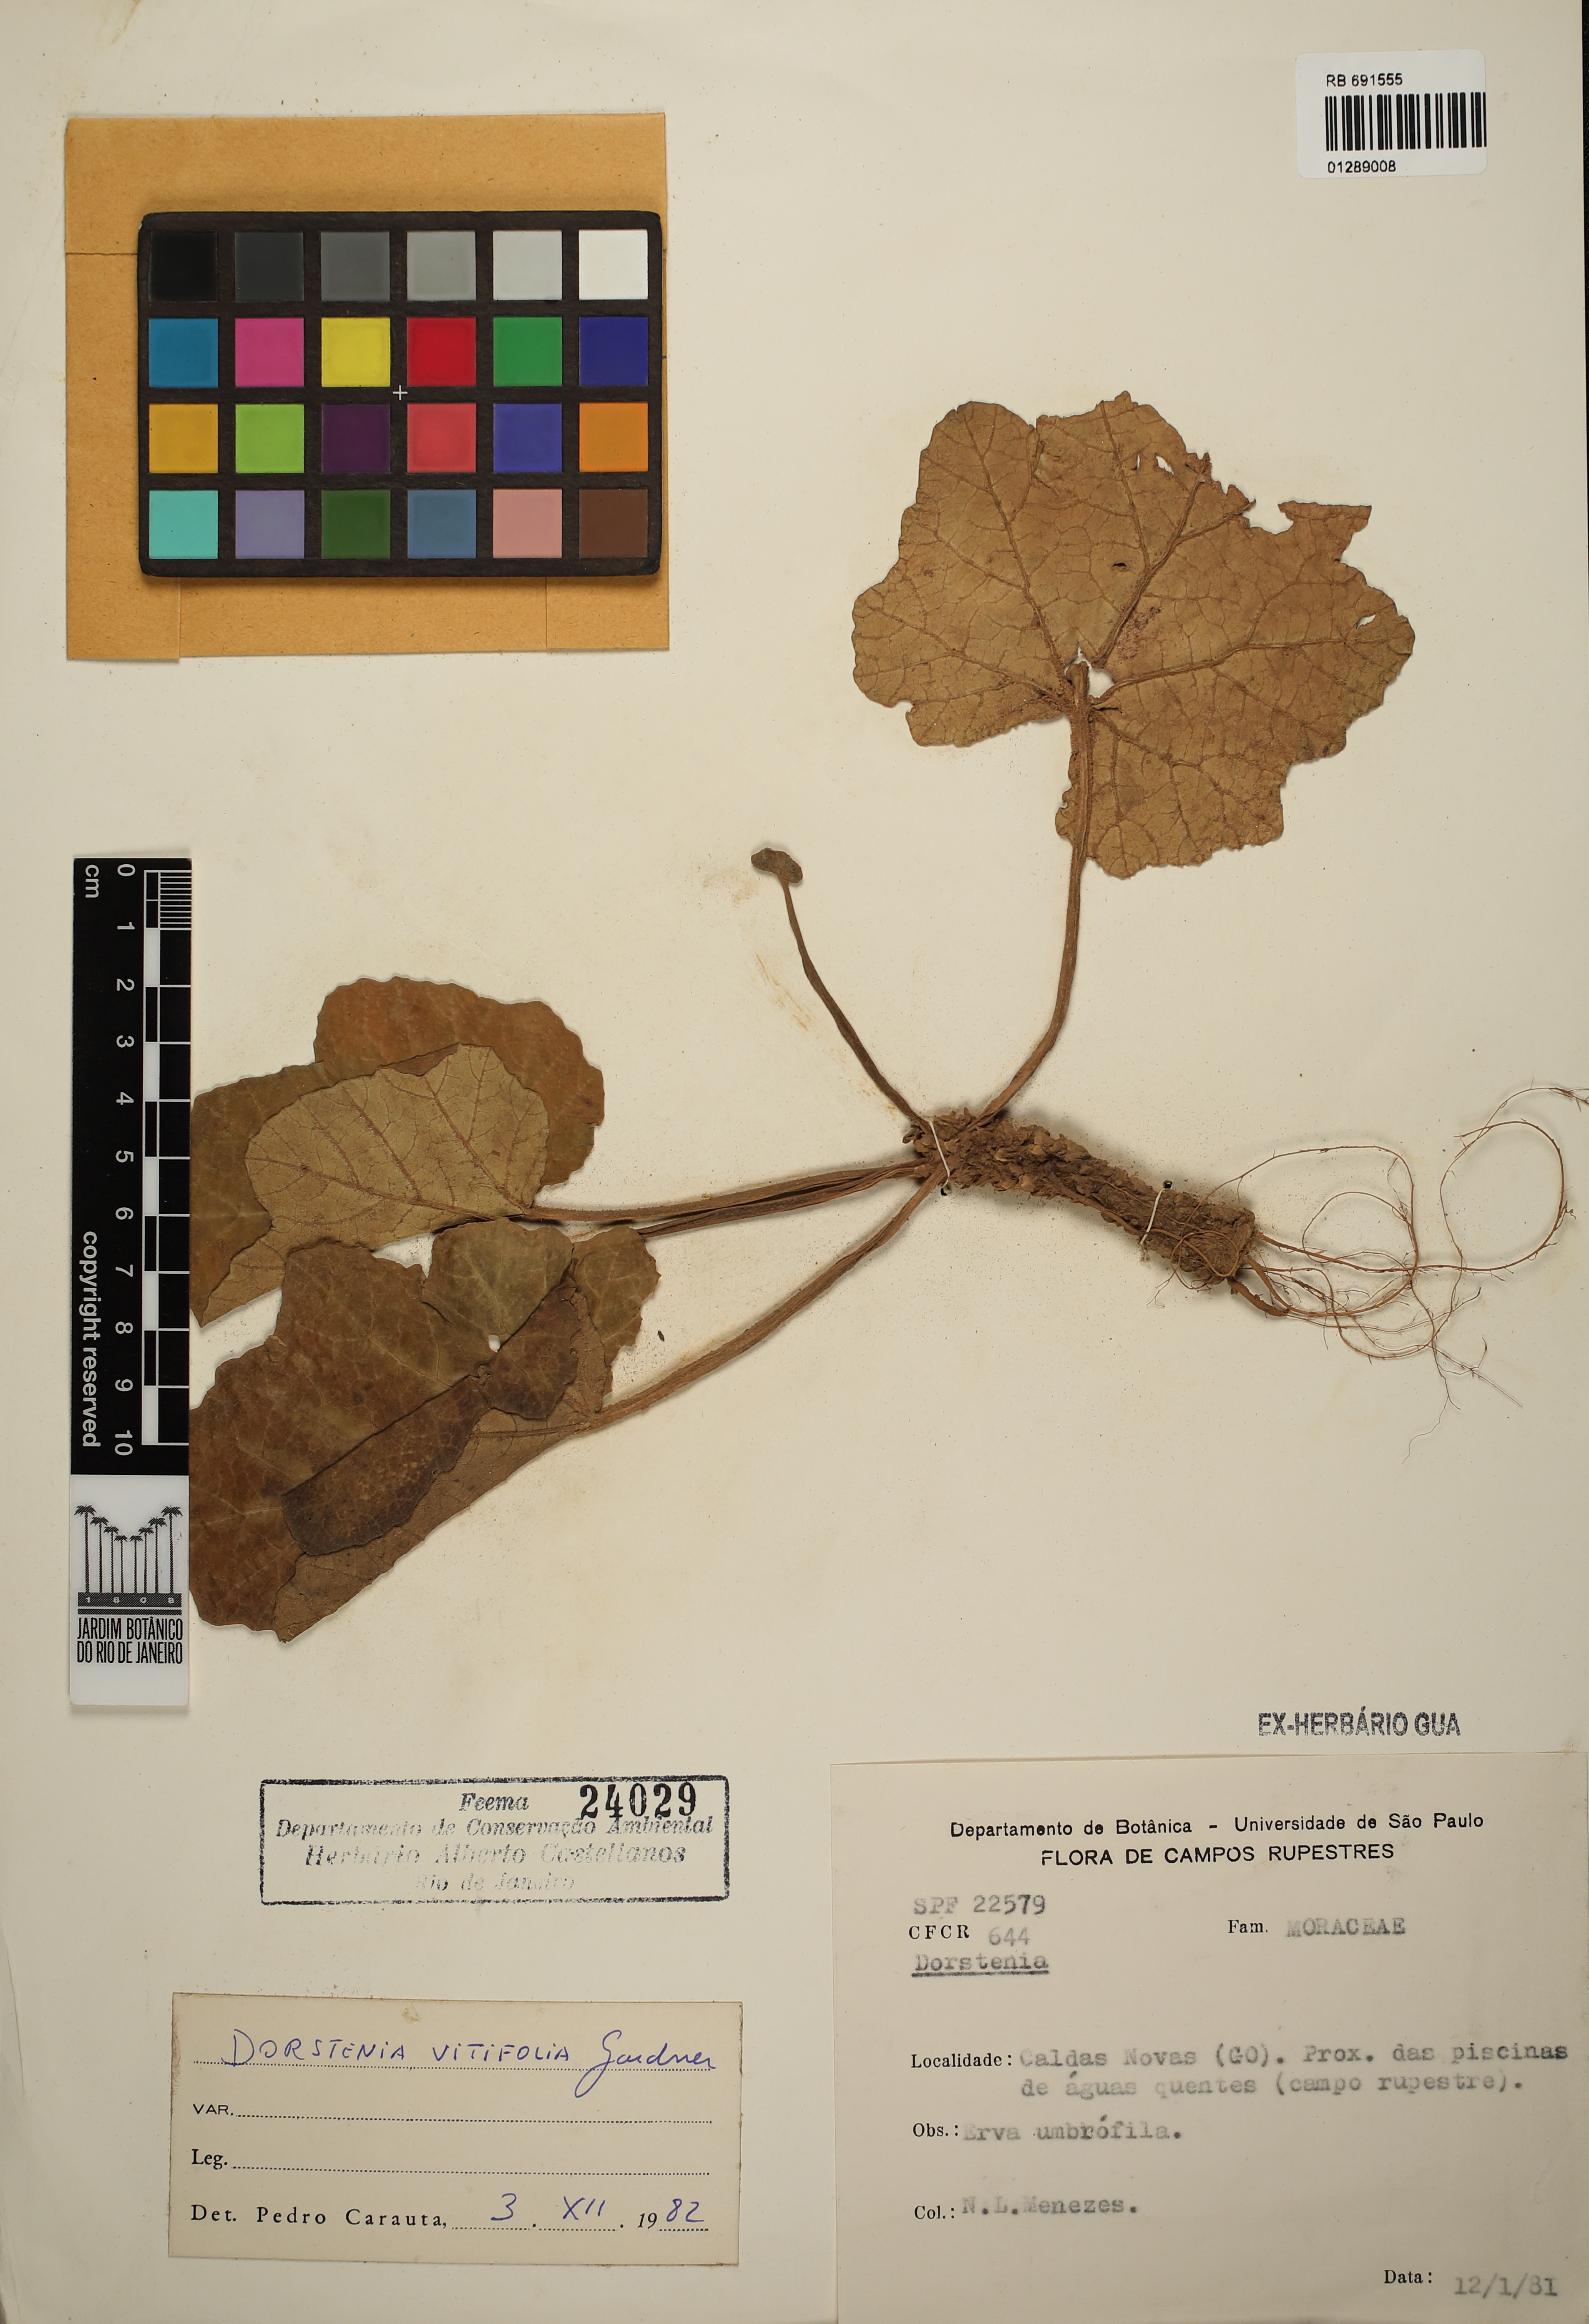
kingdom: Plantae
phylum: Tracheophyta
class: Magnoliopsida
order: Rosales
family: Moraceae
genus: Dorstenia
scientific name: Dorstenia cayapia
